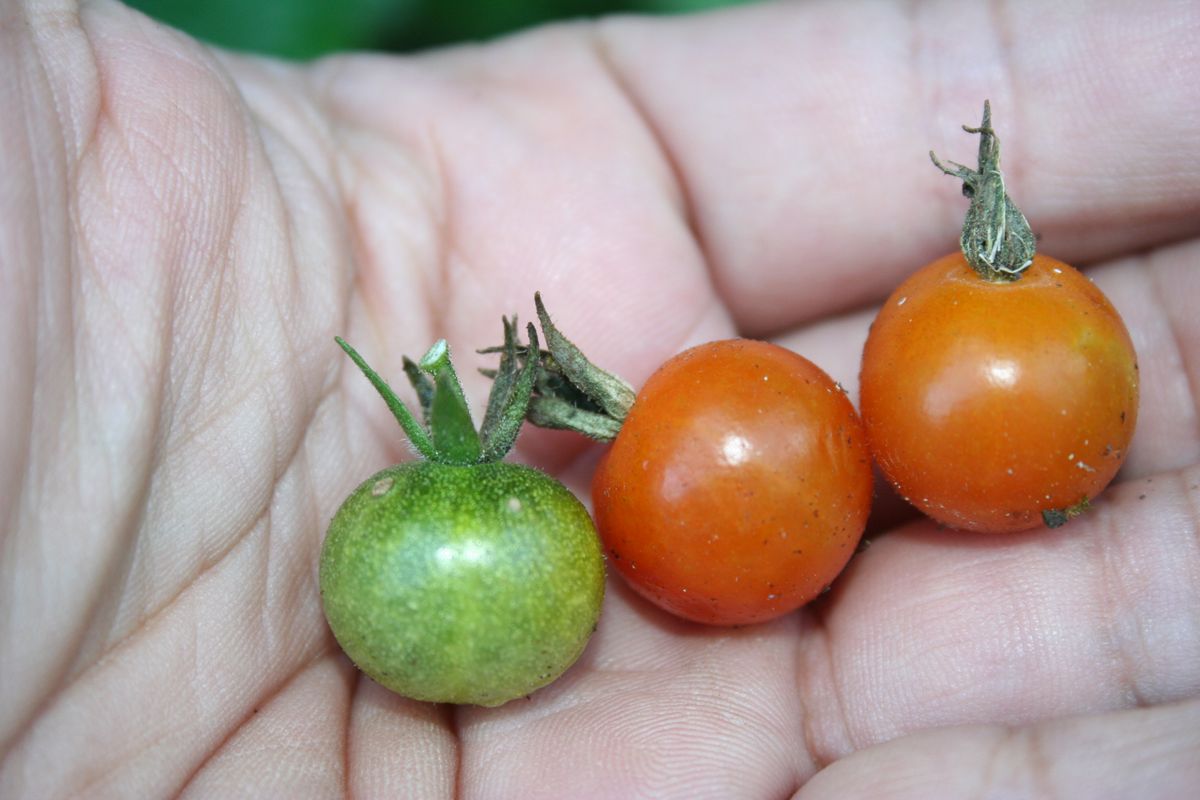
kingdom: Plantae
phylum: Tracheophyta
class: Magnoliopsida
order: Solanales
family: Solanaceae
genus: Solanum
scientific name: Solanum lycopersicum
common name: Garden tomato
